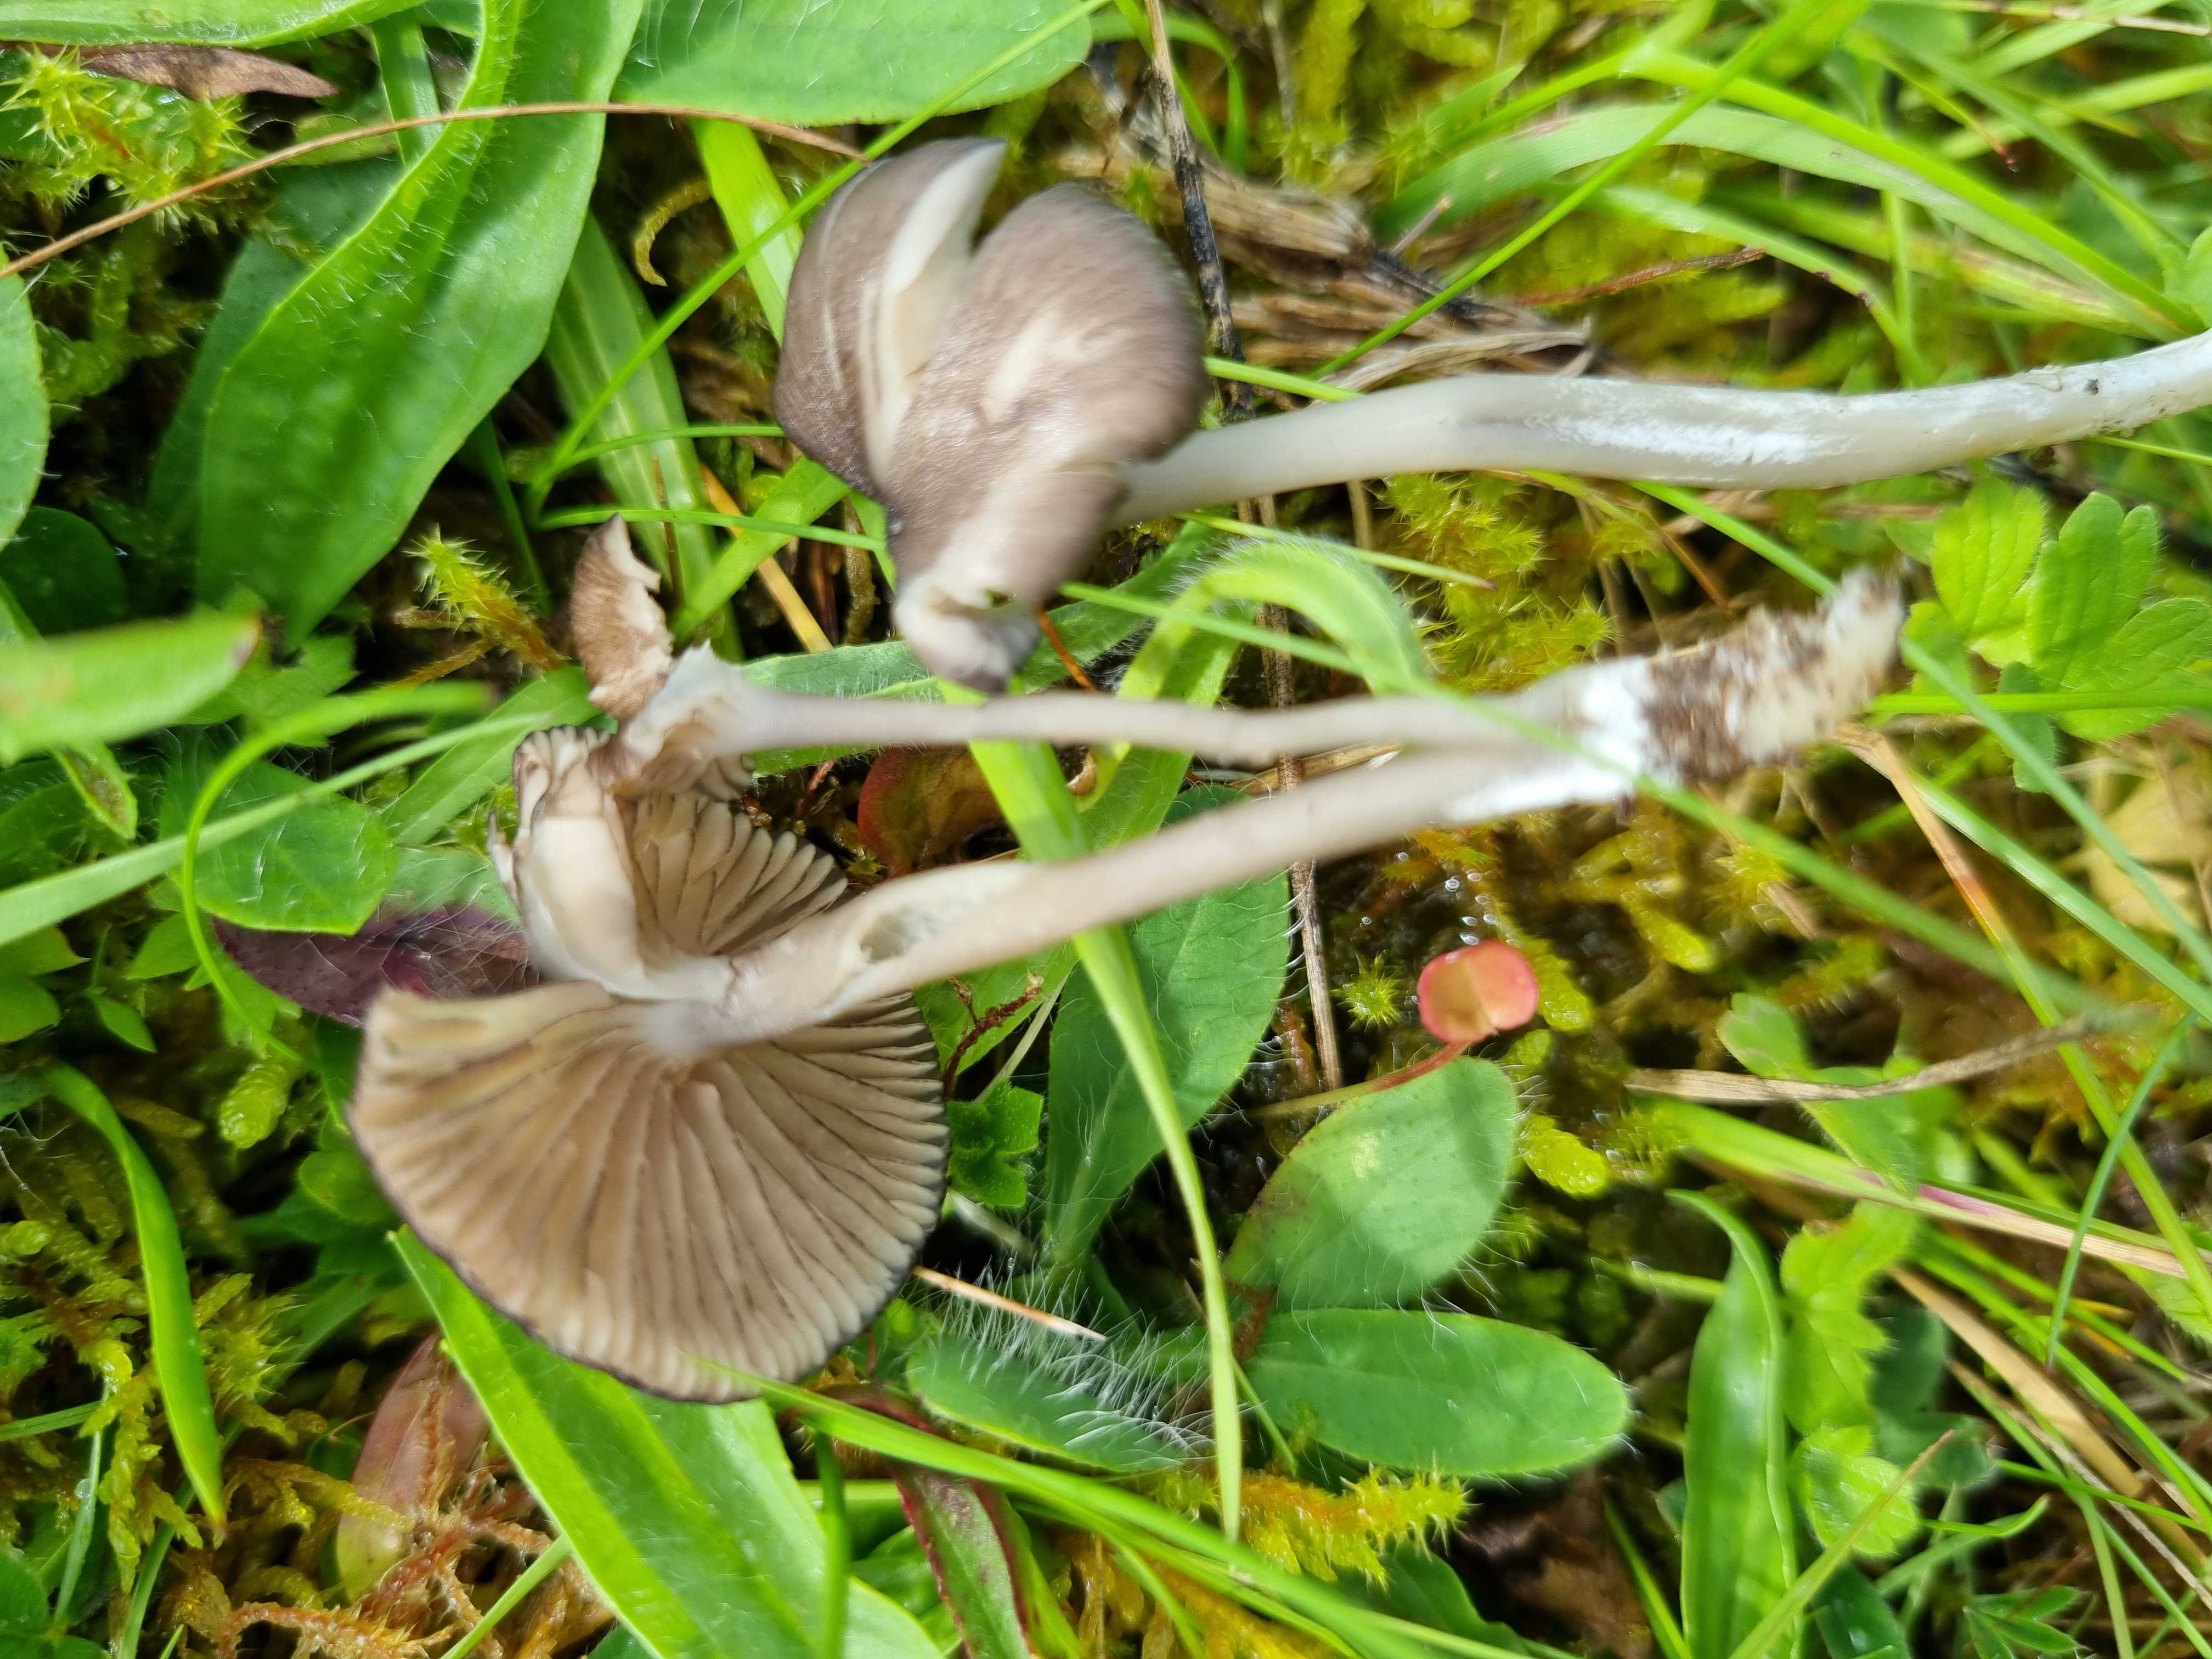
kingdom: Fungi
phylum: Basidiomycota
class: Agaricomycetes
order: Agaricales
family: Entolomataceae
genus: Entoloma
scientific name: Entoloma
